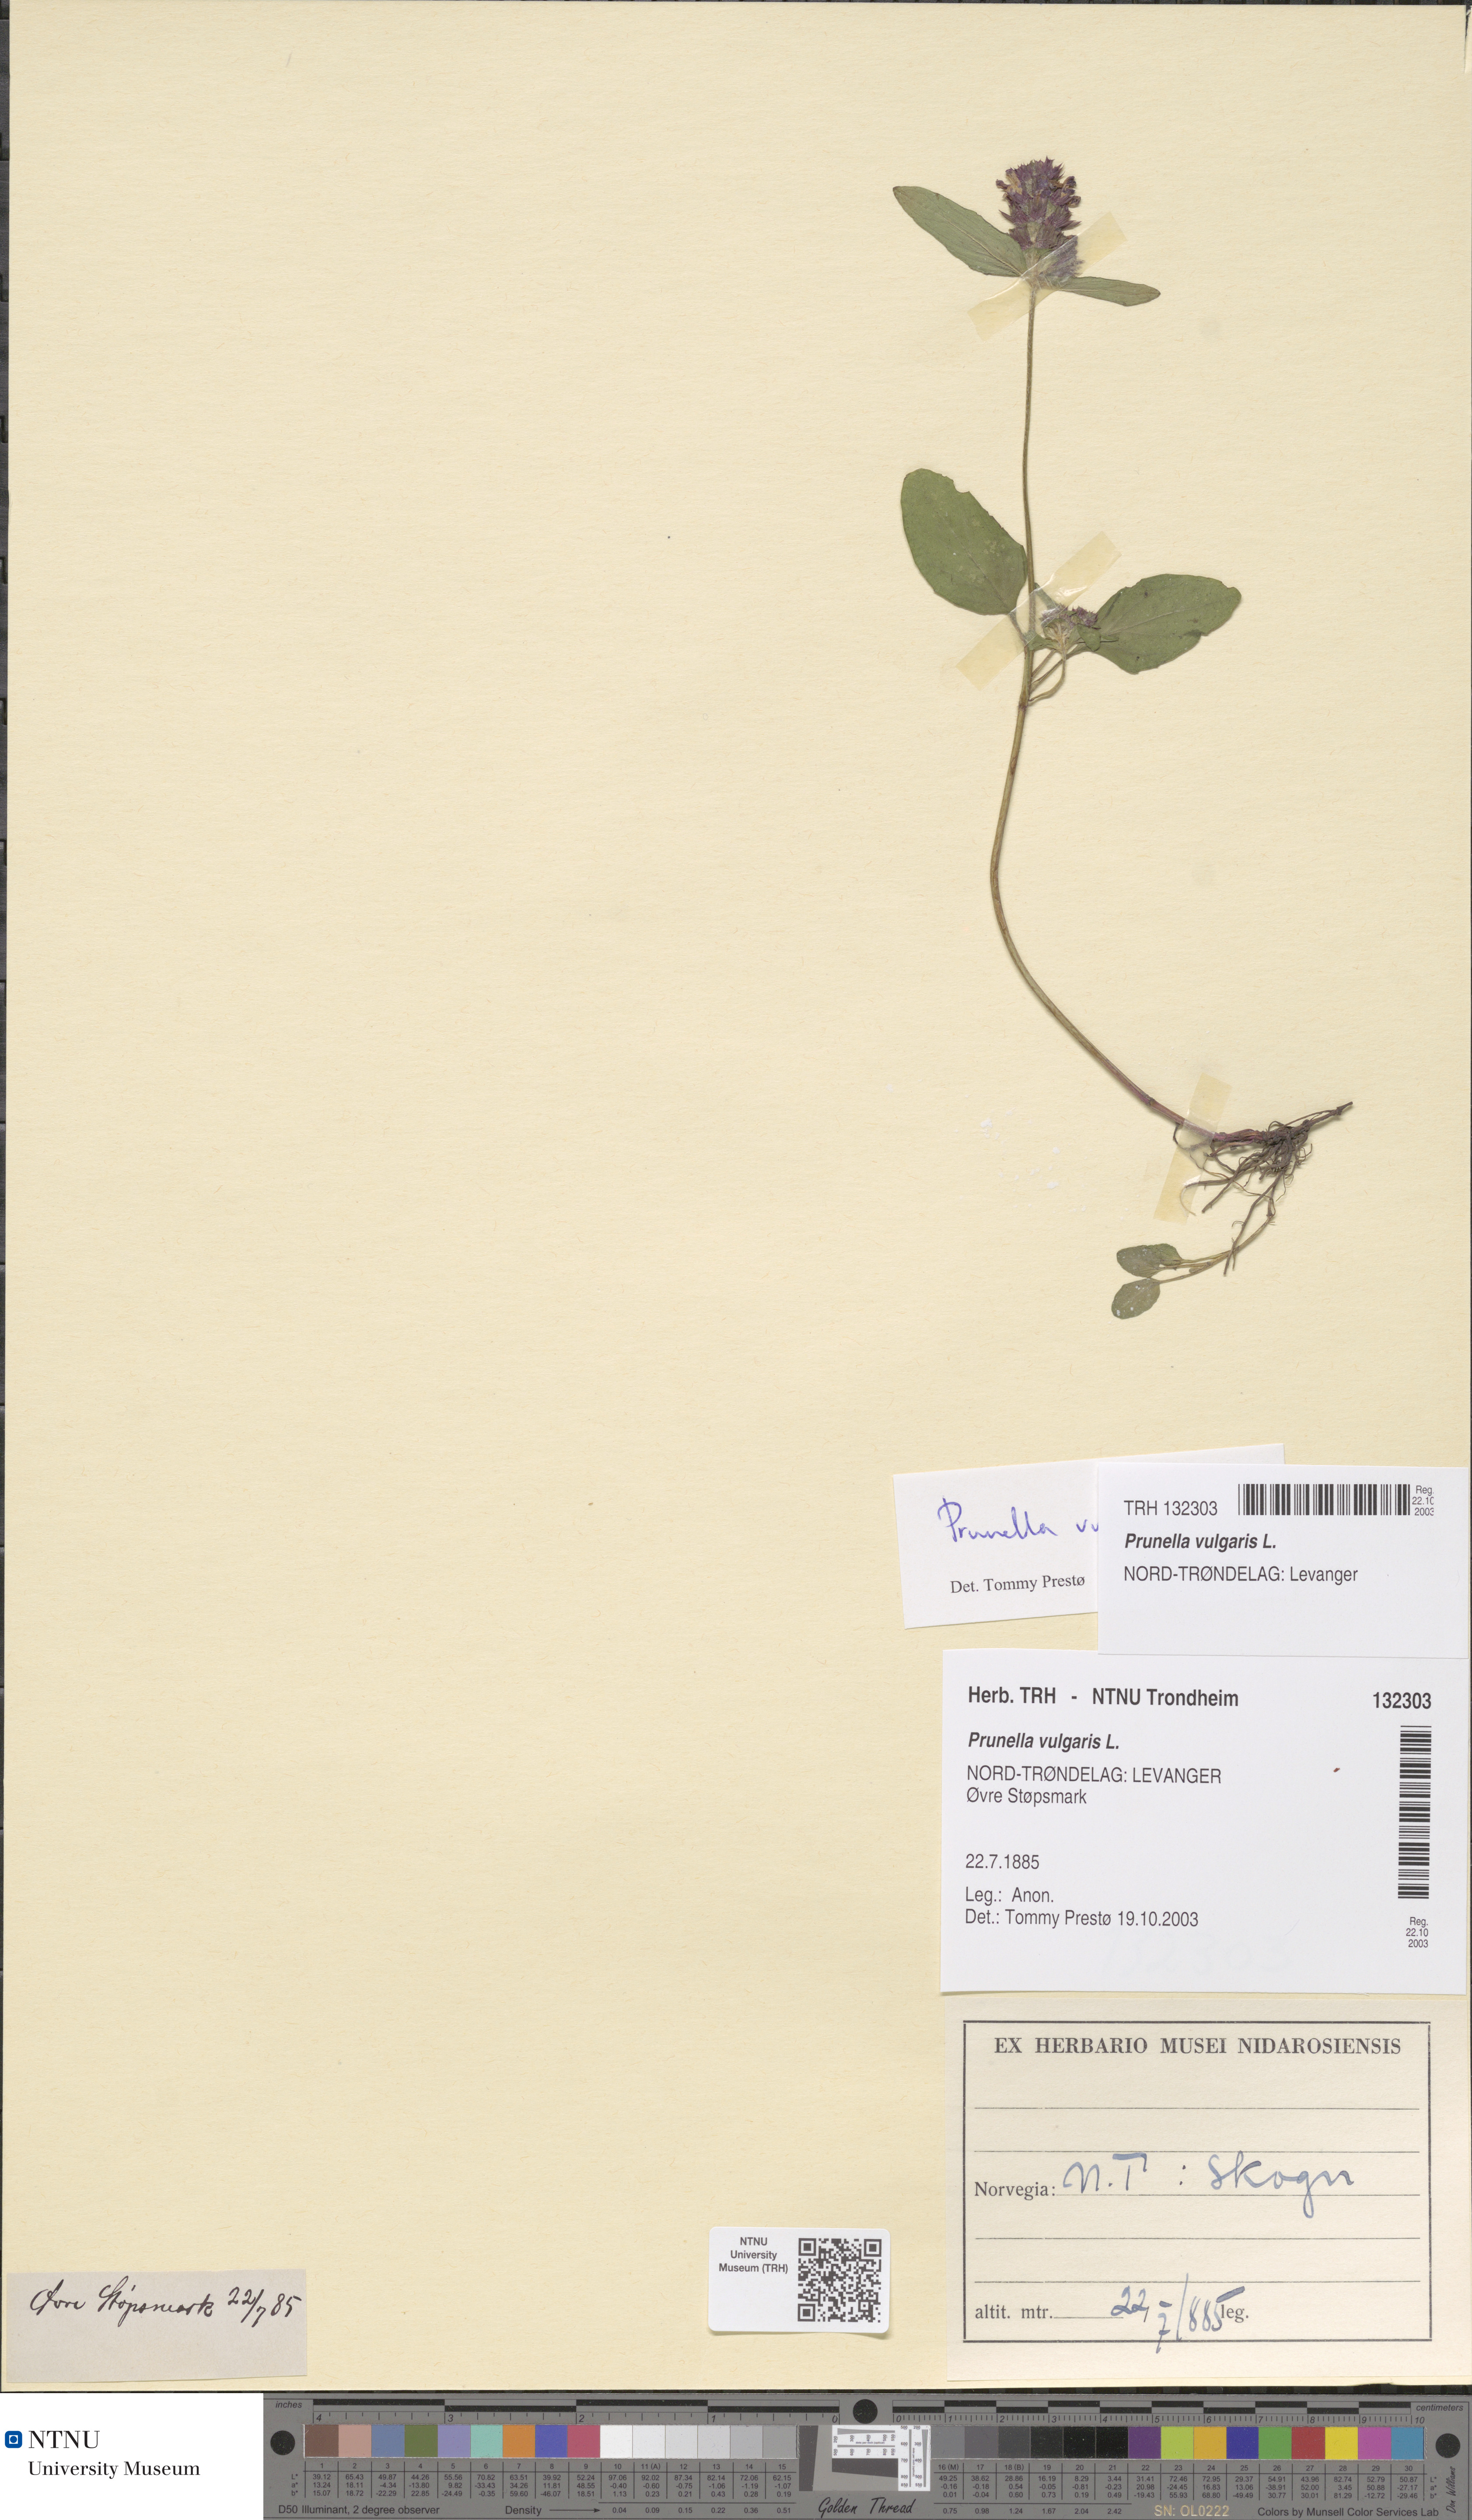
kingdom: Plantae
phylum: Tracheophyta
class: Magnoliopsida
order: Lamiales
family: Lamiaceae
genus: Prunella
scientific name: Prunella vulgaris
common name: Heal-all
